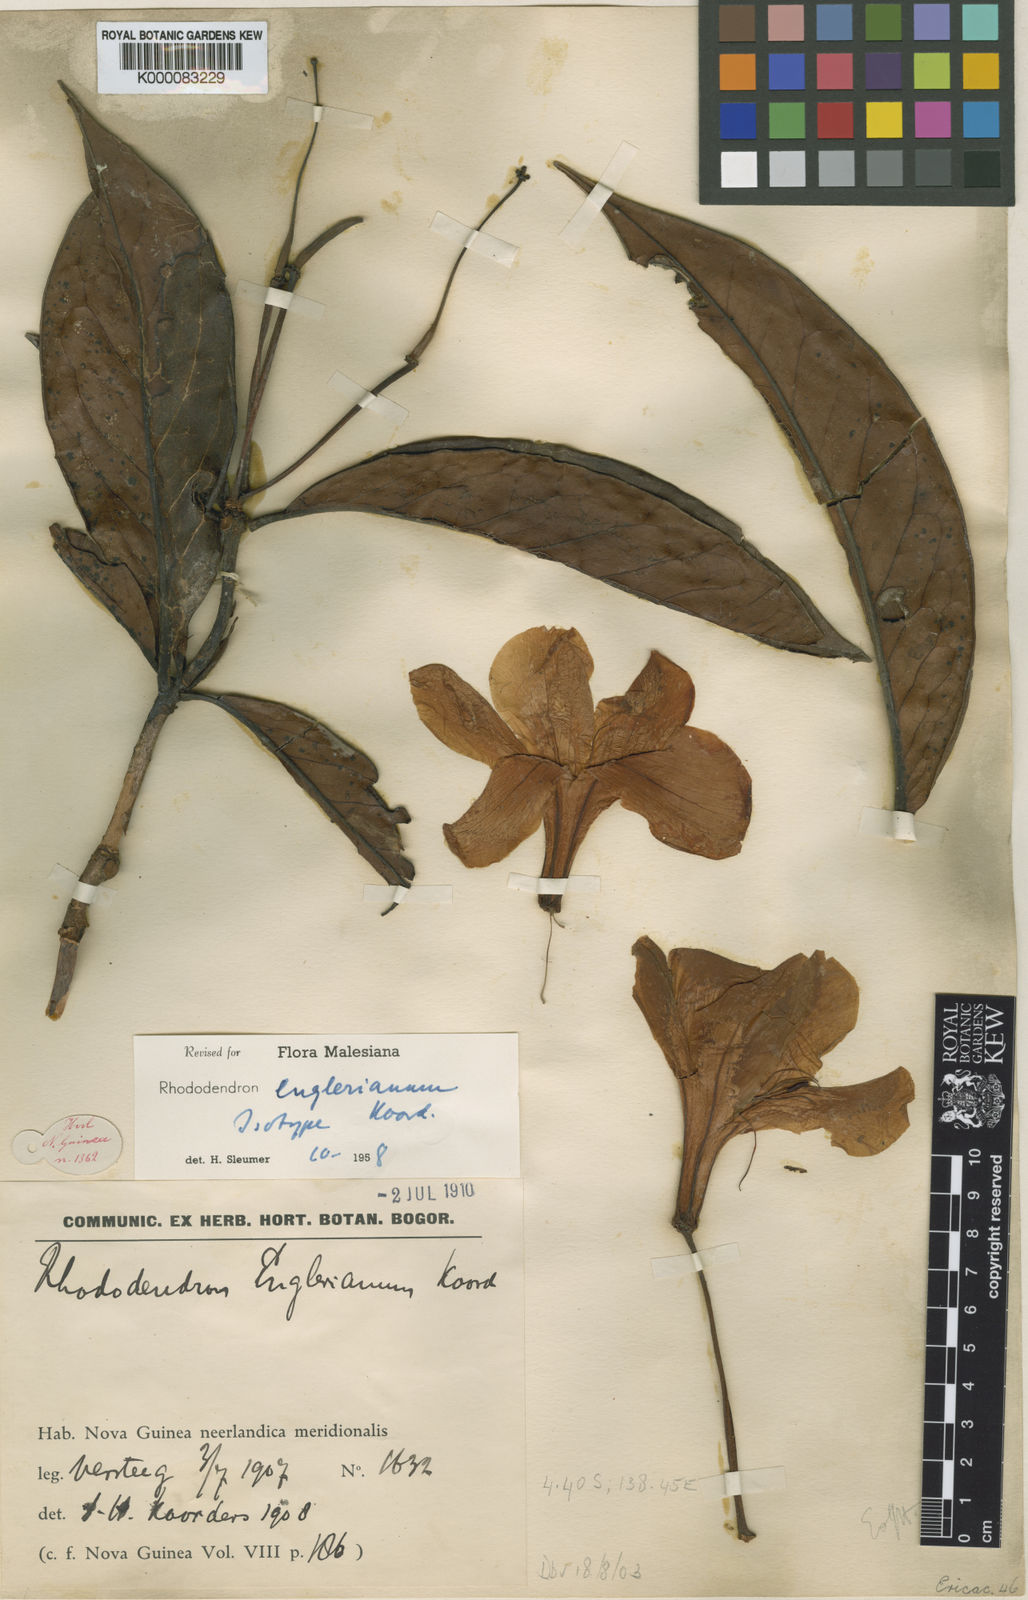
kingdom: Plantae
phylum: Tracheophyta
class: Magnoliopsida
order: Ericales
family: Ericaceae
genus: Rhododendron
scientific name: Rhododendron englerianum
